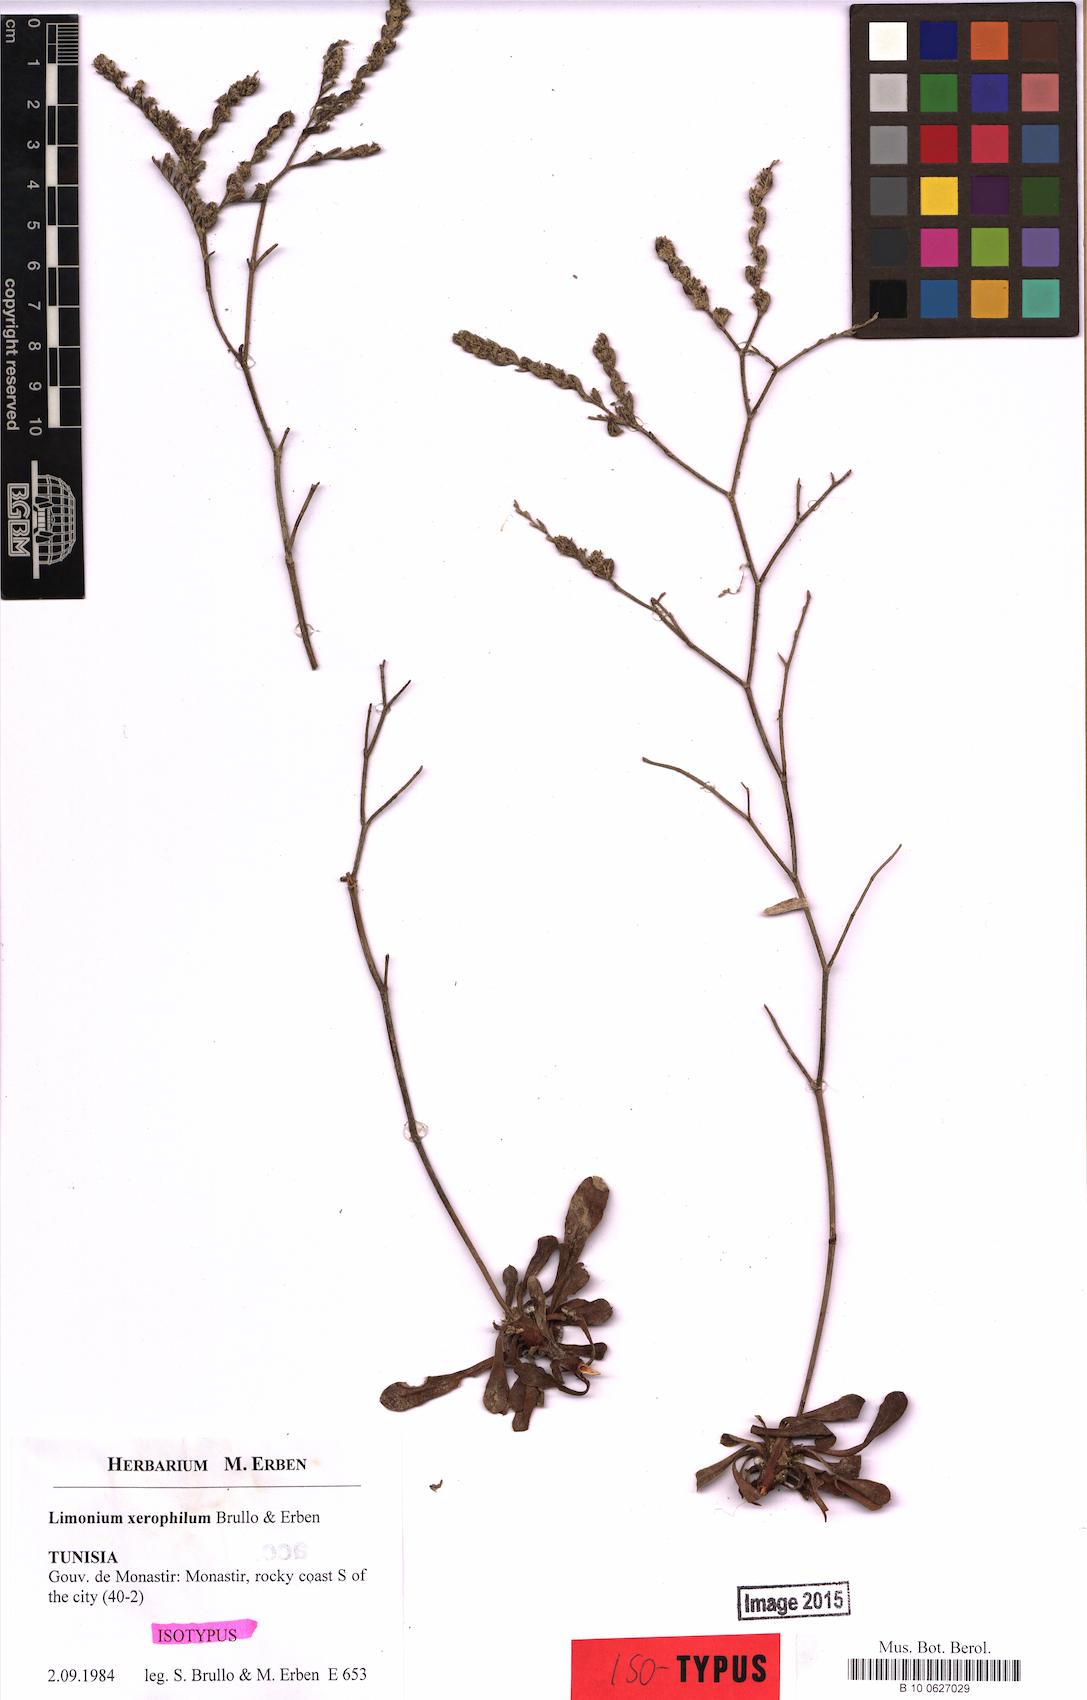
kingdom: Plantae
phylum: Tracheophyta
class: Magnoliopsida
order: Caryophyllales
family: Plumbaginaceae
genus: Limonium
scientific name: Limonium xerophilum
